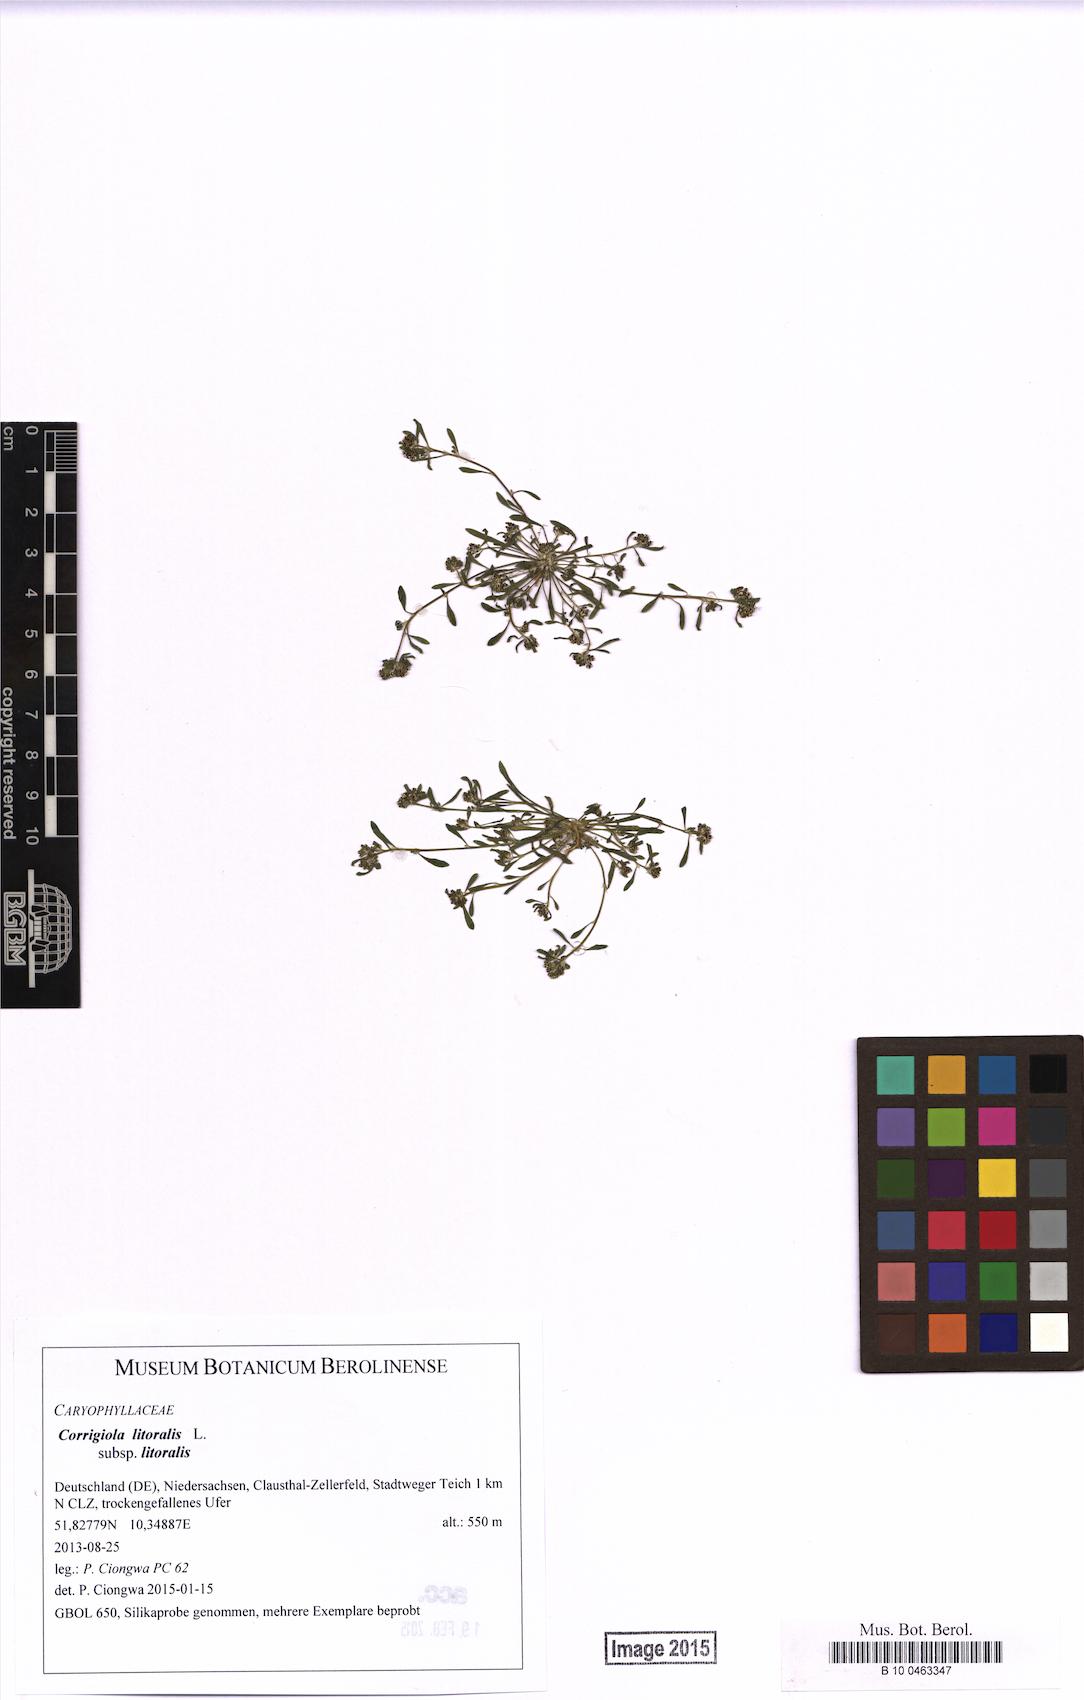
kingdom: Plantae
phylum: Tracheophyta
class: Magnoliopsida
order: Caryophyllales
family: Caryophyllaceae
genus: Corrigiola
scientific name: Corrigiola litoralis
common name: Strapwort
